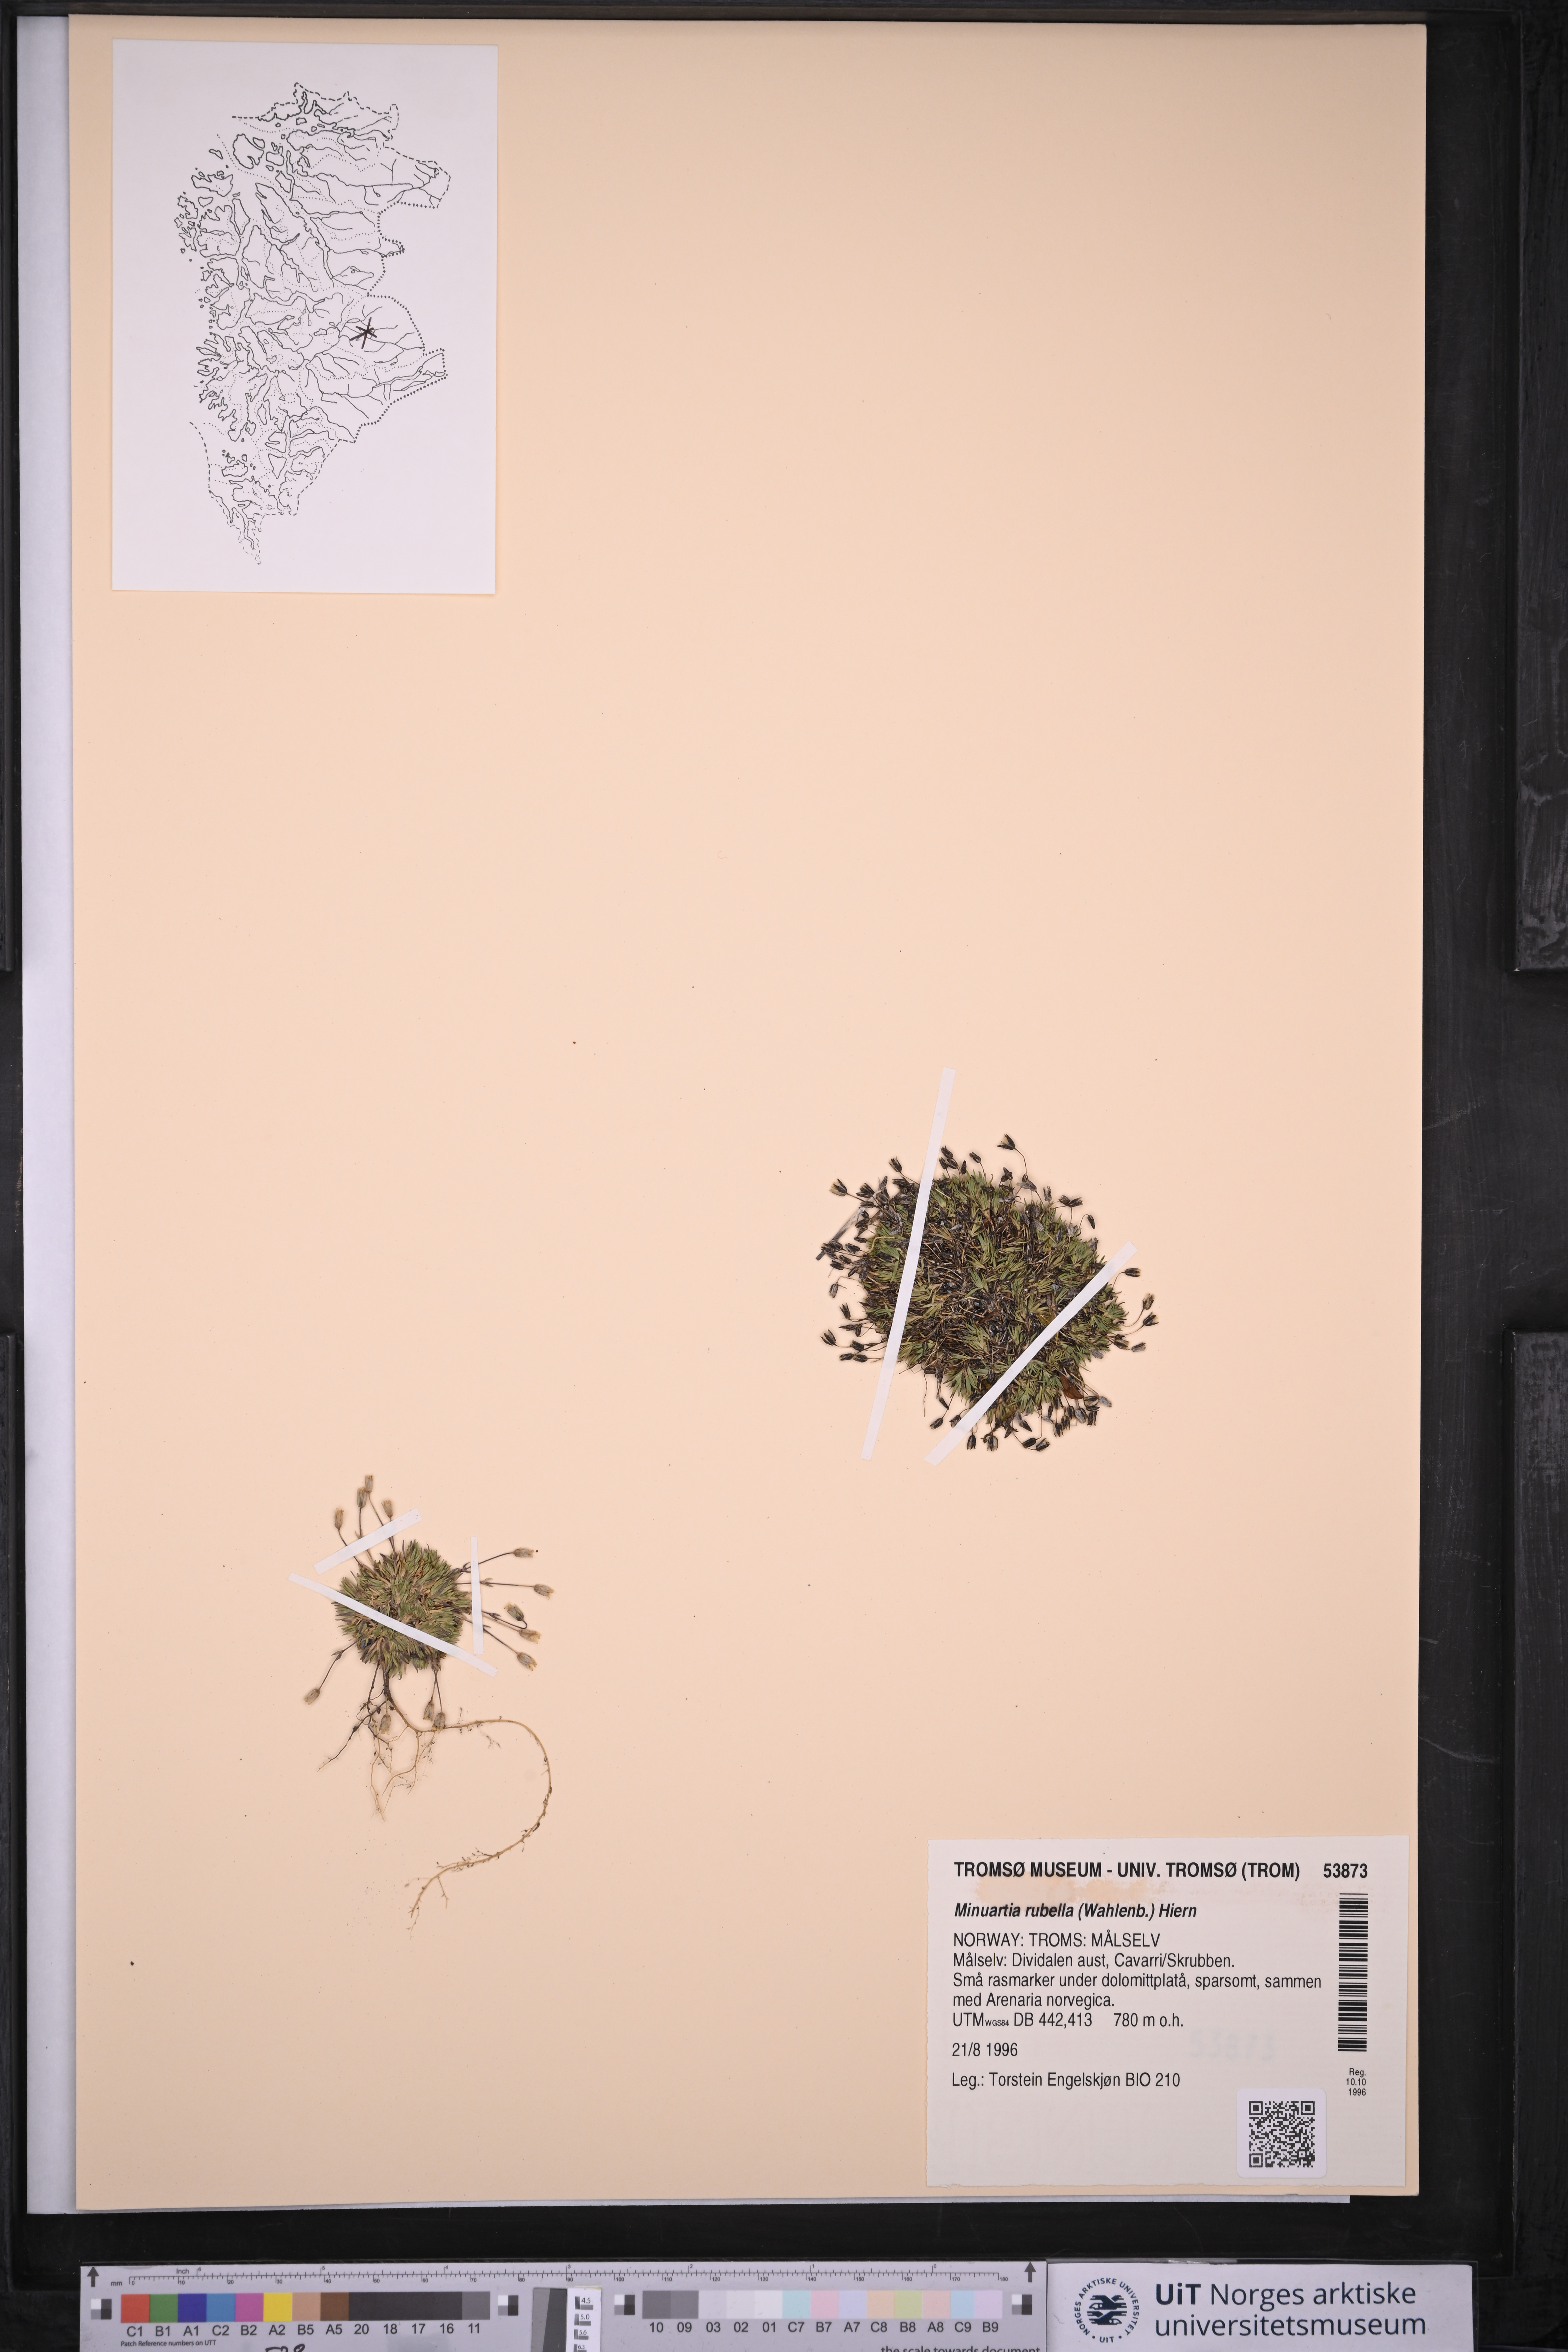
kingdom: Plantae
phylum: Tracheophyta
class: Magnoliopsida
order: Caryophyllales
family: Caryophyllaceae
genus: Sabulina
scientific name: Sabulina rubella
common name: Beautiful sandwort
